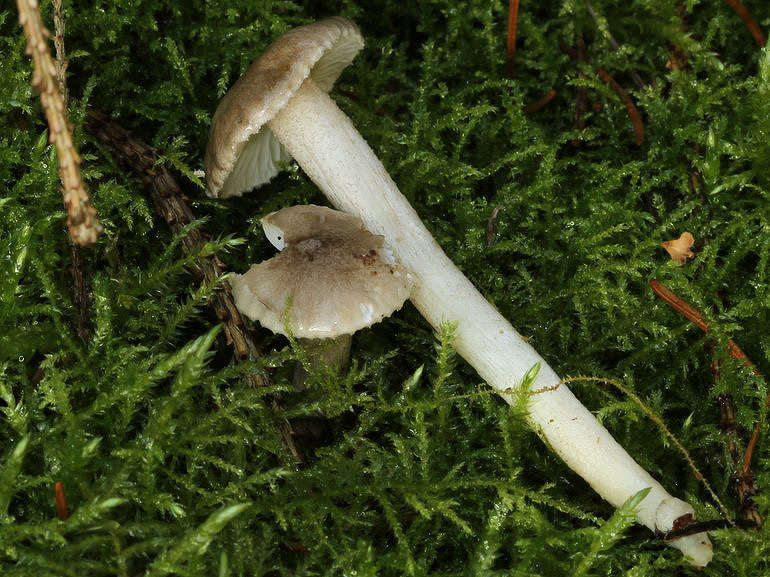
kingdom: Fungi
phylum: Basidiomycota
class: Agaricomycetes
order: Agaricales
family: Hygrophoraceae
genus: Hygrophorus
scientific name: Hygrophorus pustulatus
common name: mørkprikket sneglehat
